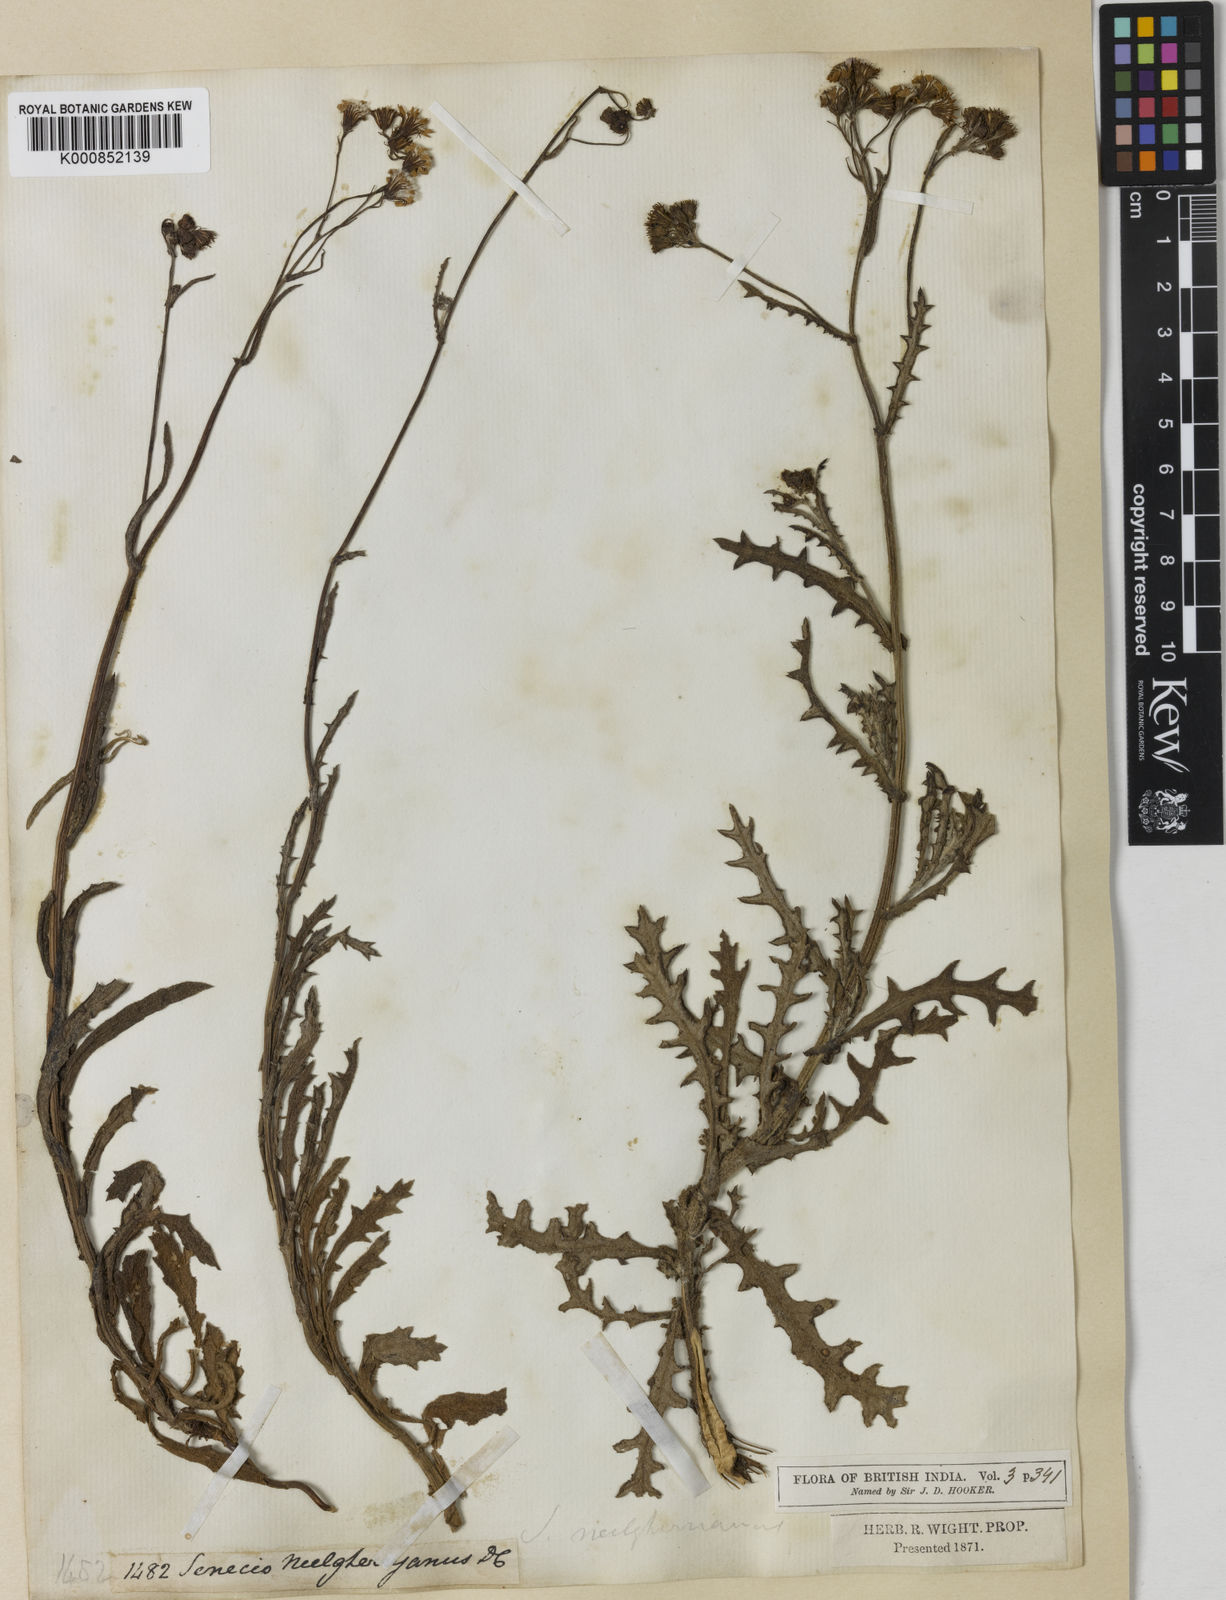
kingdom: Plantae
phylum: Tracheophyta
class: Magnoliopsida
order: Asterales
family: Asteraceae
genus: Senecio
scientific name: Senecio neelgherryanus
